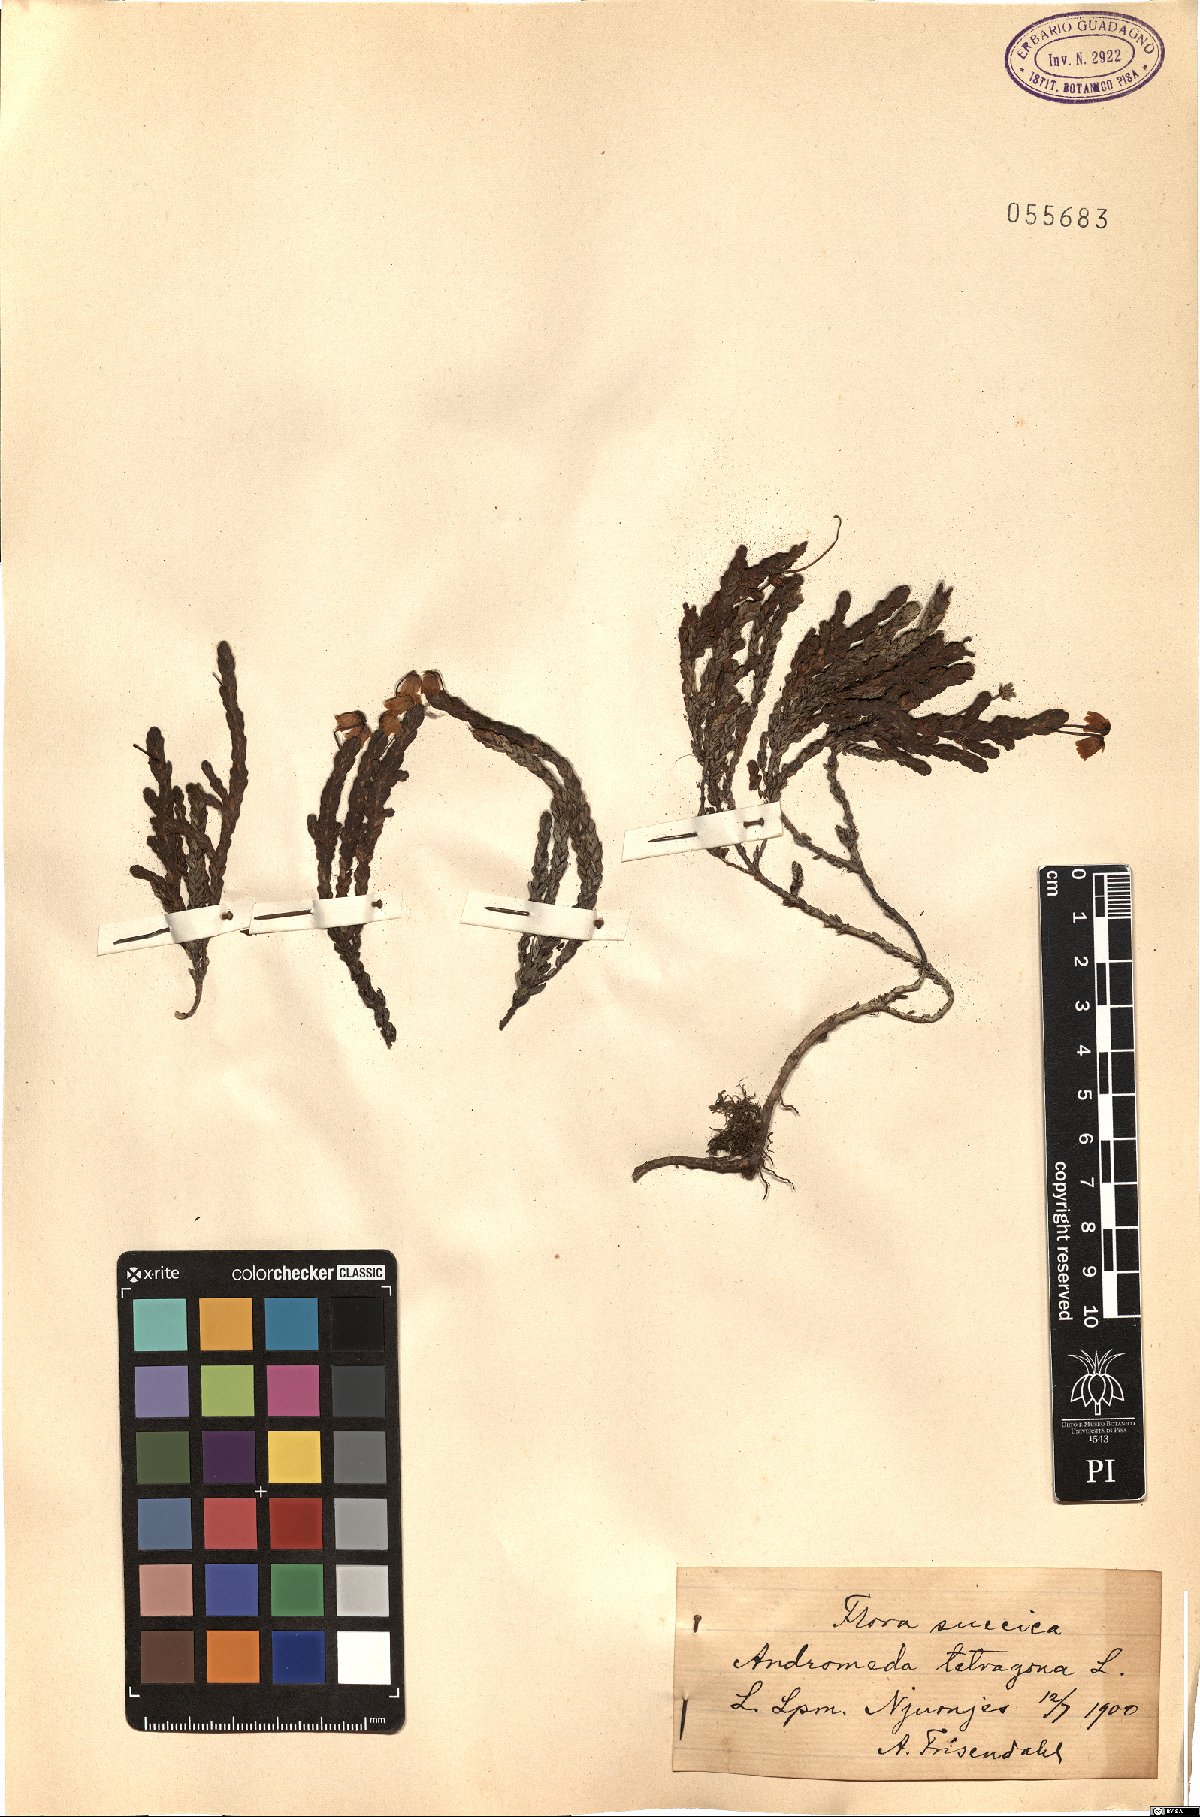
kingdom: Plantae
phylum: Tracheophyta
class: Magnoliopsida
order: Ericales
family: Ericaceae
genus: Cassiope
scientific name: Cassiope tetragona
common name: Arctic bell heather
